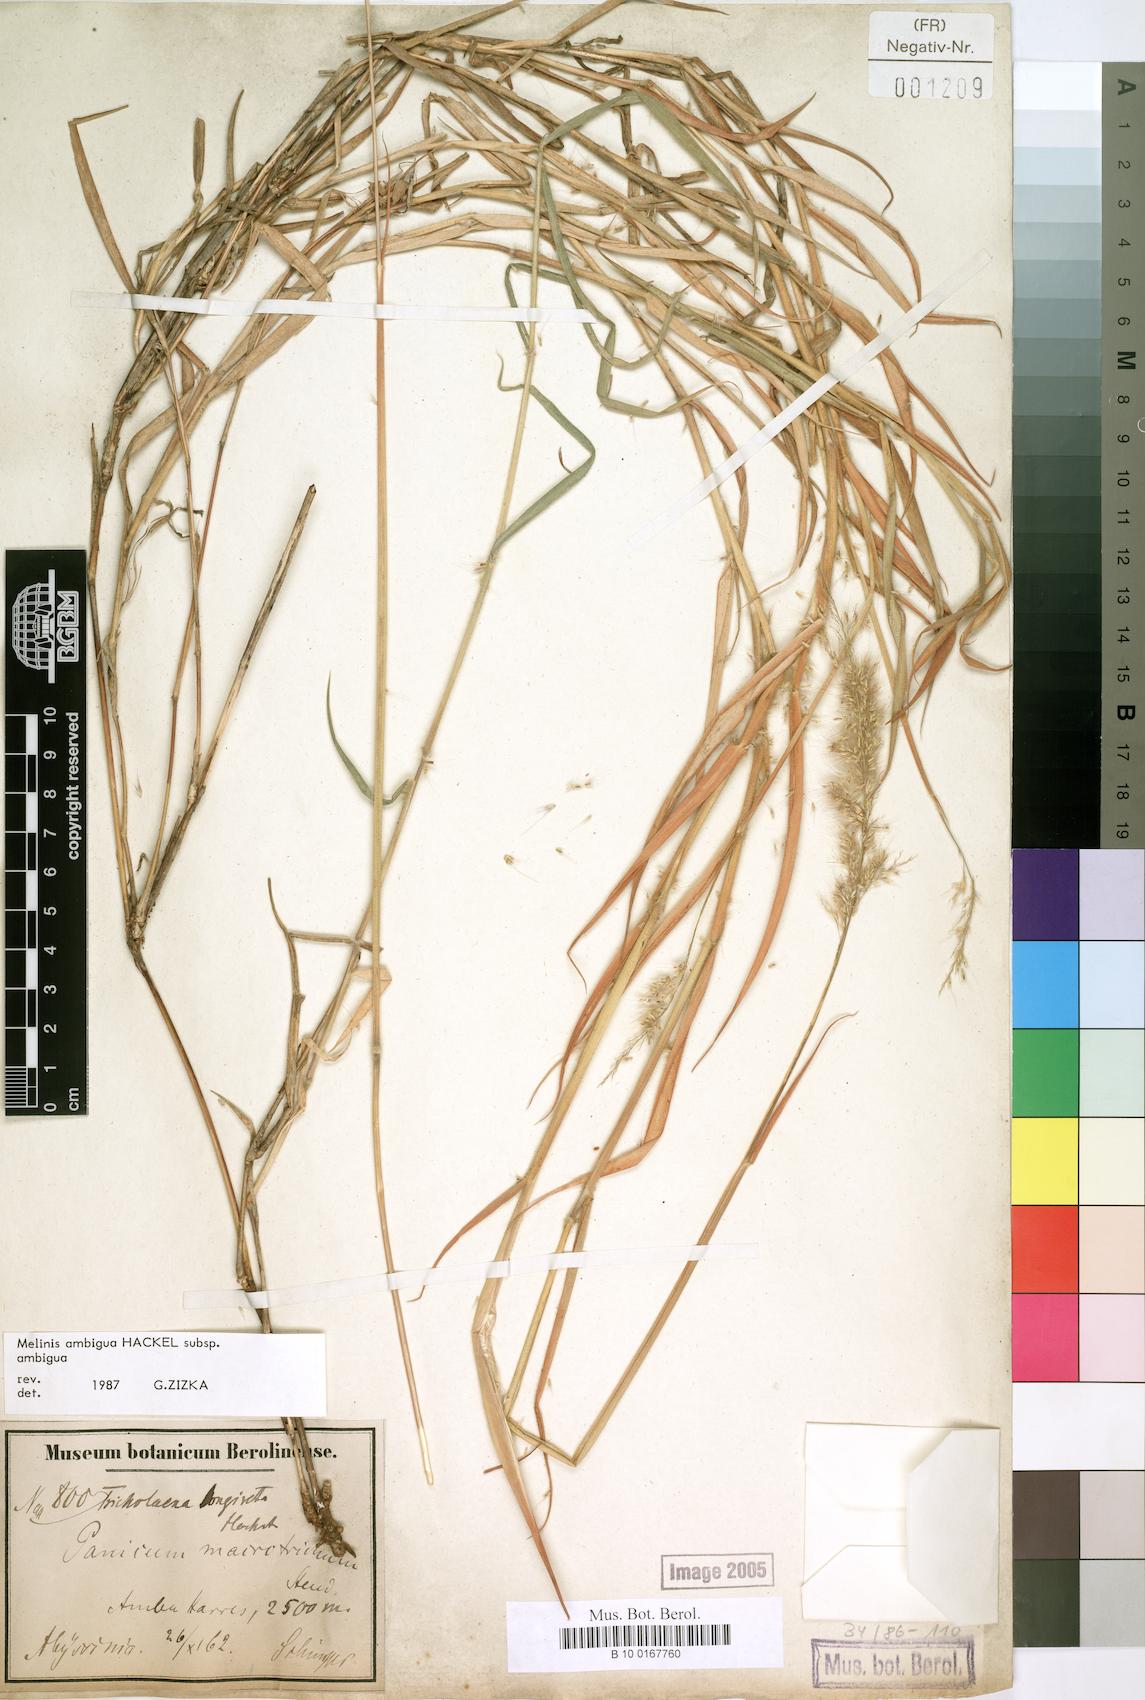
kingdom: Plantae
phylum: Tracheophyta
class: Liliopsida
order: Poales
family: Poaceae
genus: Melinis
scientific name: Melinis ambigua
